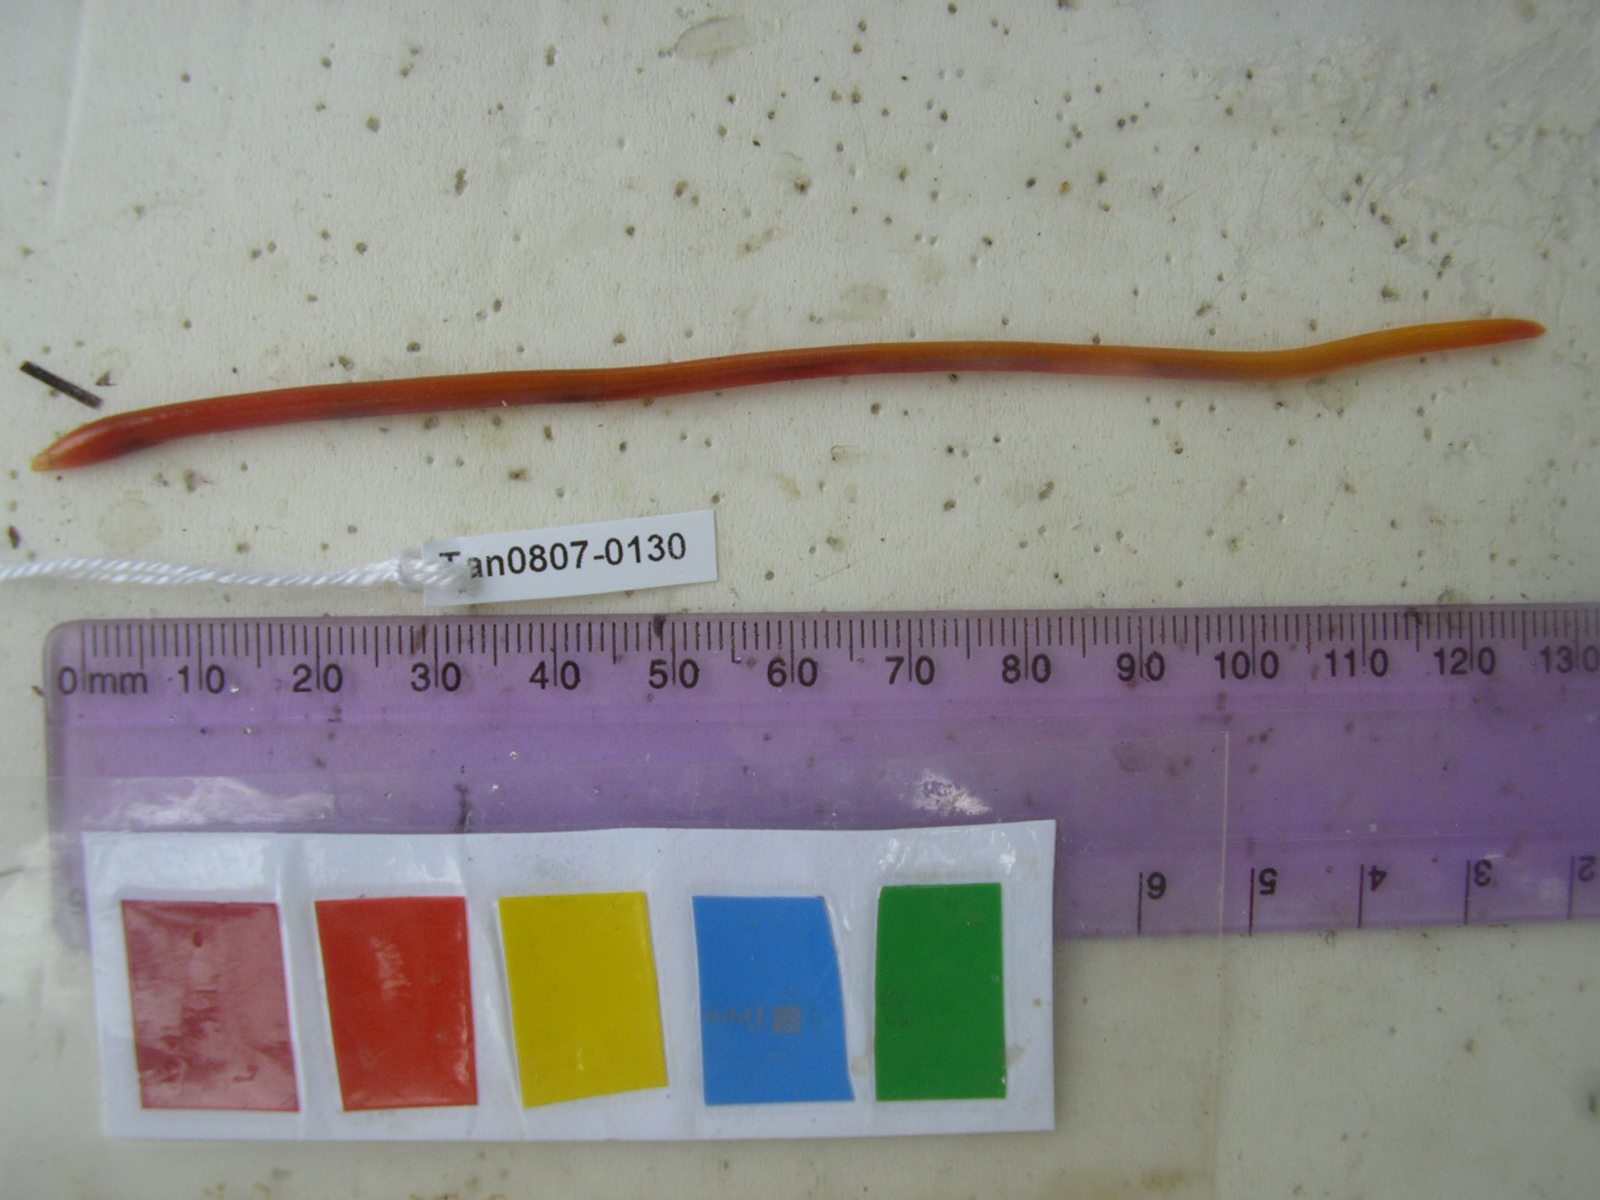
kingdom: Animalia
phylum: Chordata
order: Anguilliformes
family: Moringuidae
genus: Moringua
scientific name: Moringua ferruginea
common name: Rusty spaghetti eel
